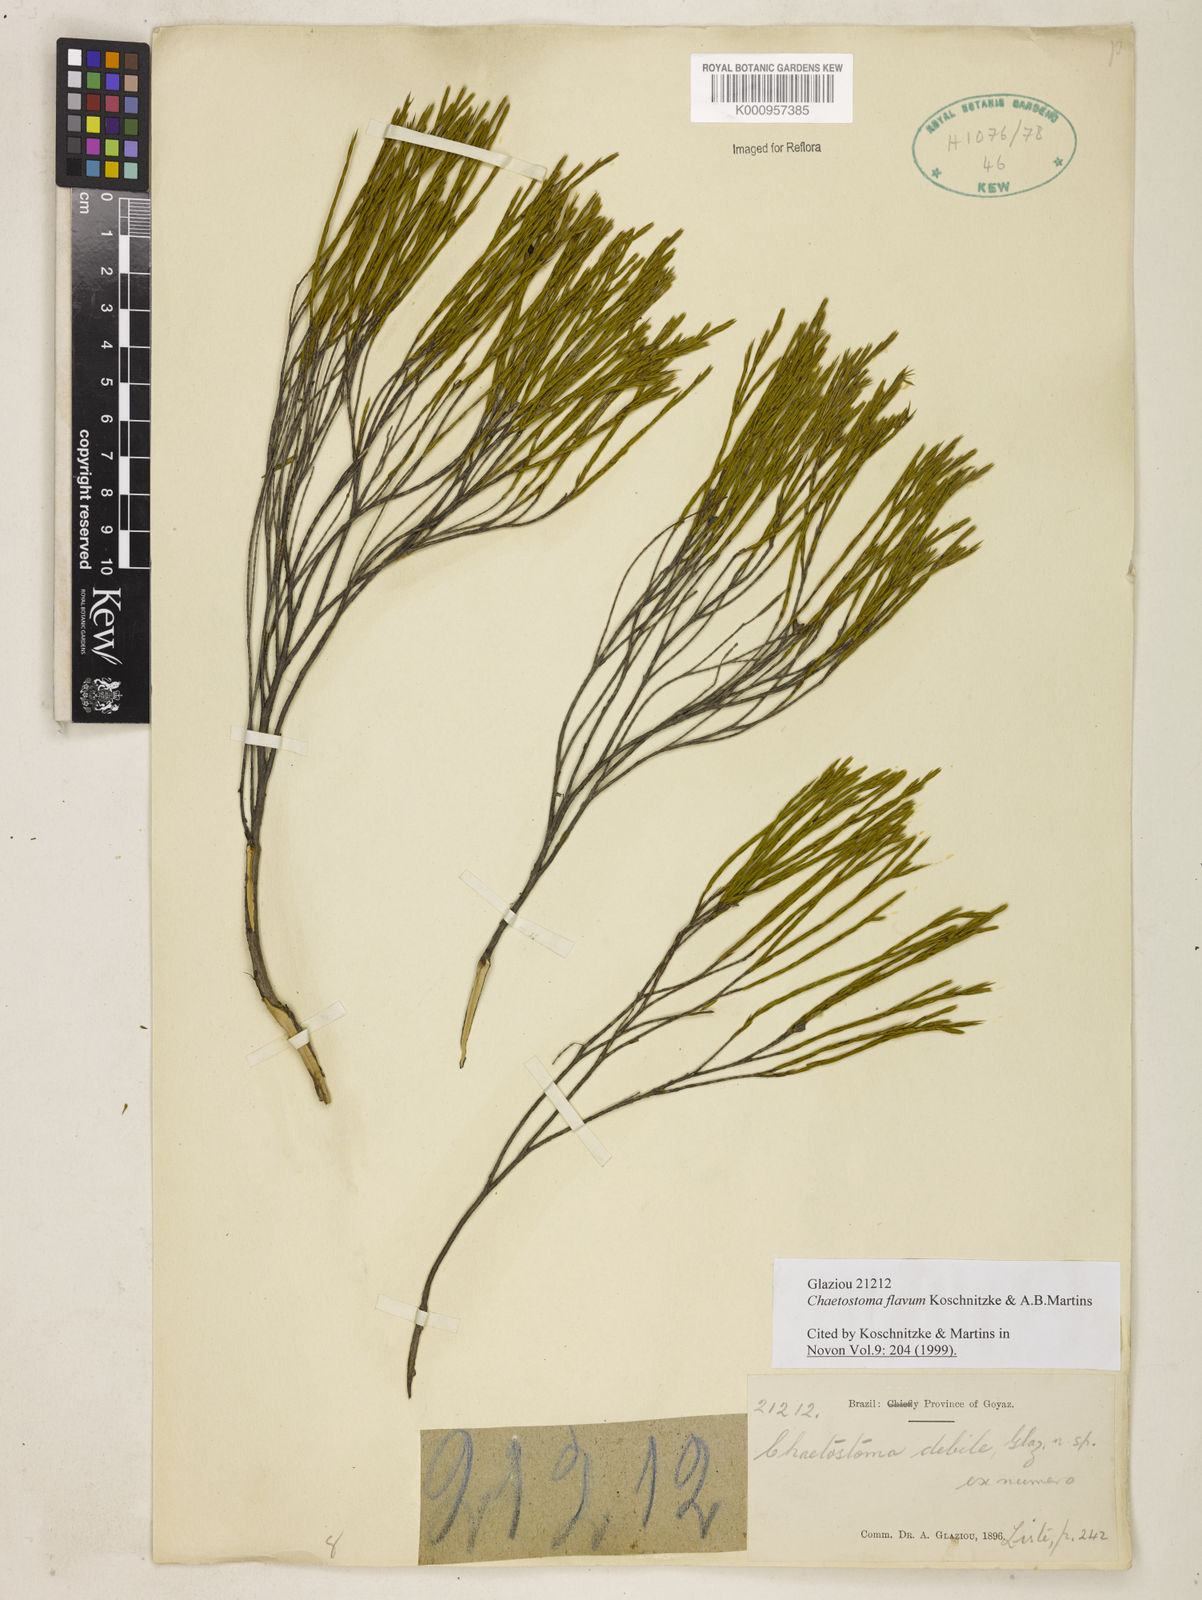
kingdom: Plantae
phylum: Tracheophyta
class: Magnoliopsida
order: Myrtales
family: Melastomataceae
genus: Microlicia
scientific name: Microlicia flavipetala
